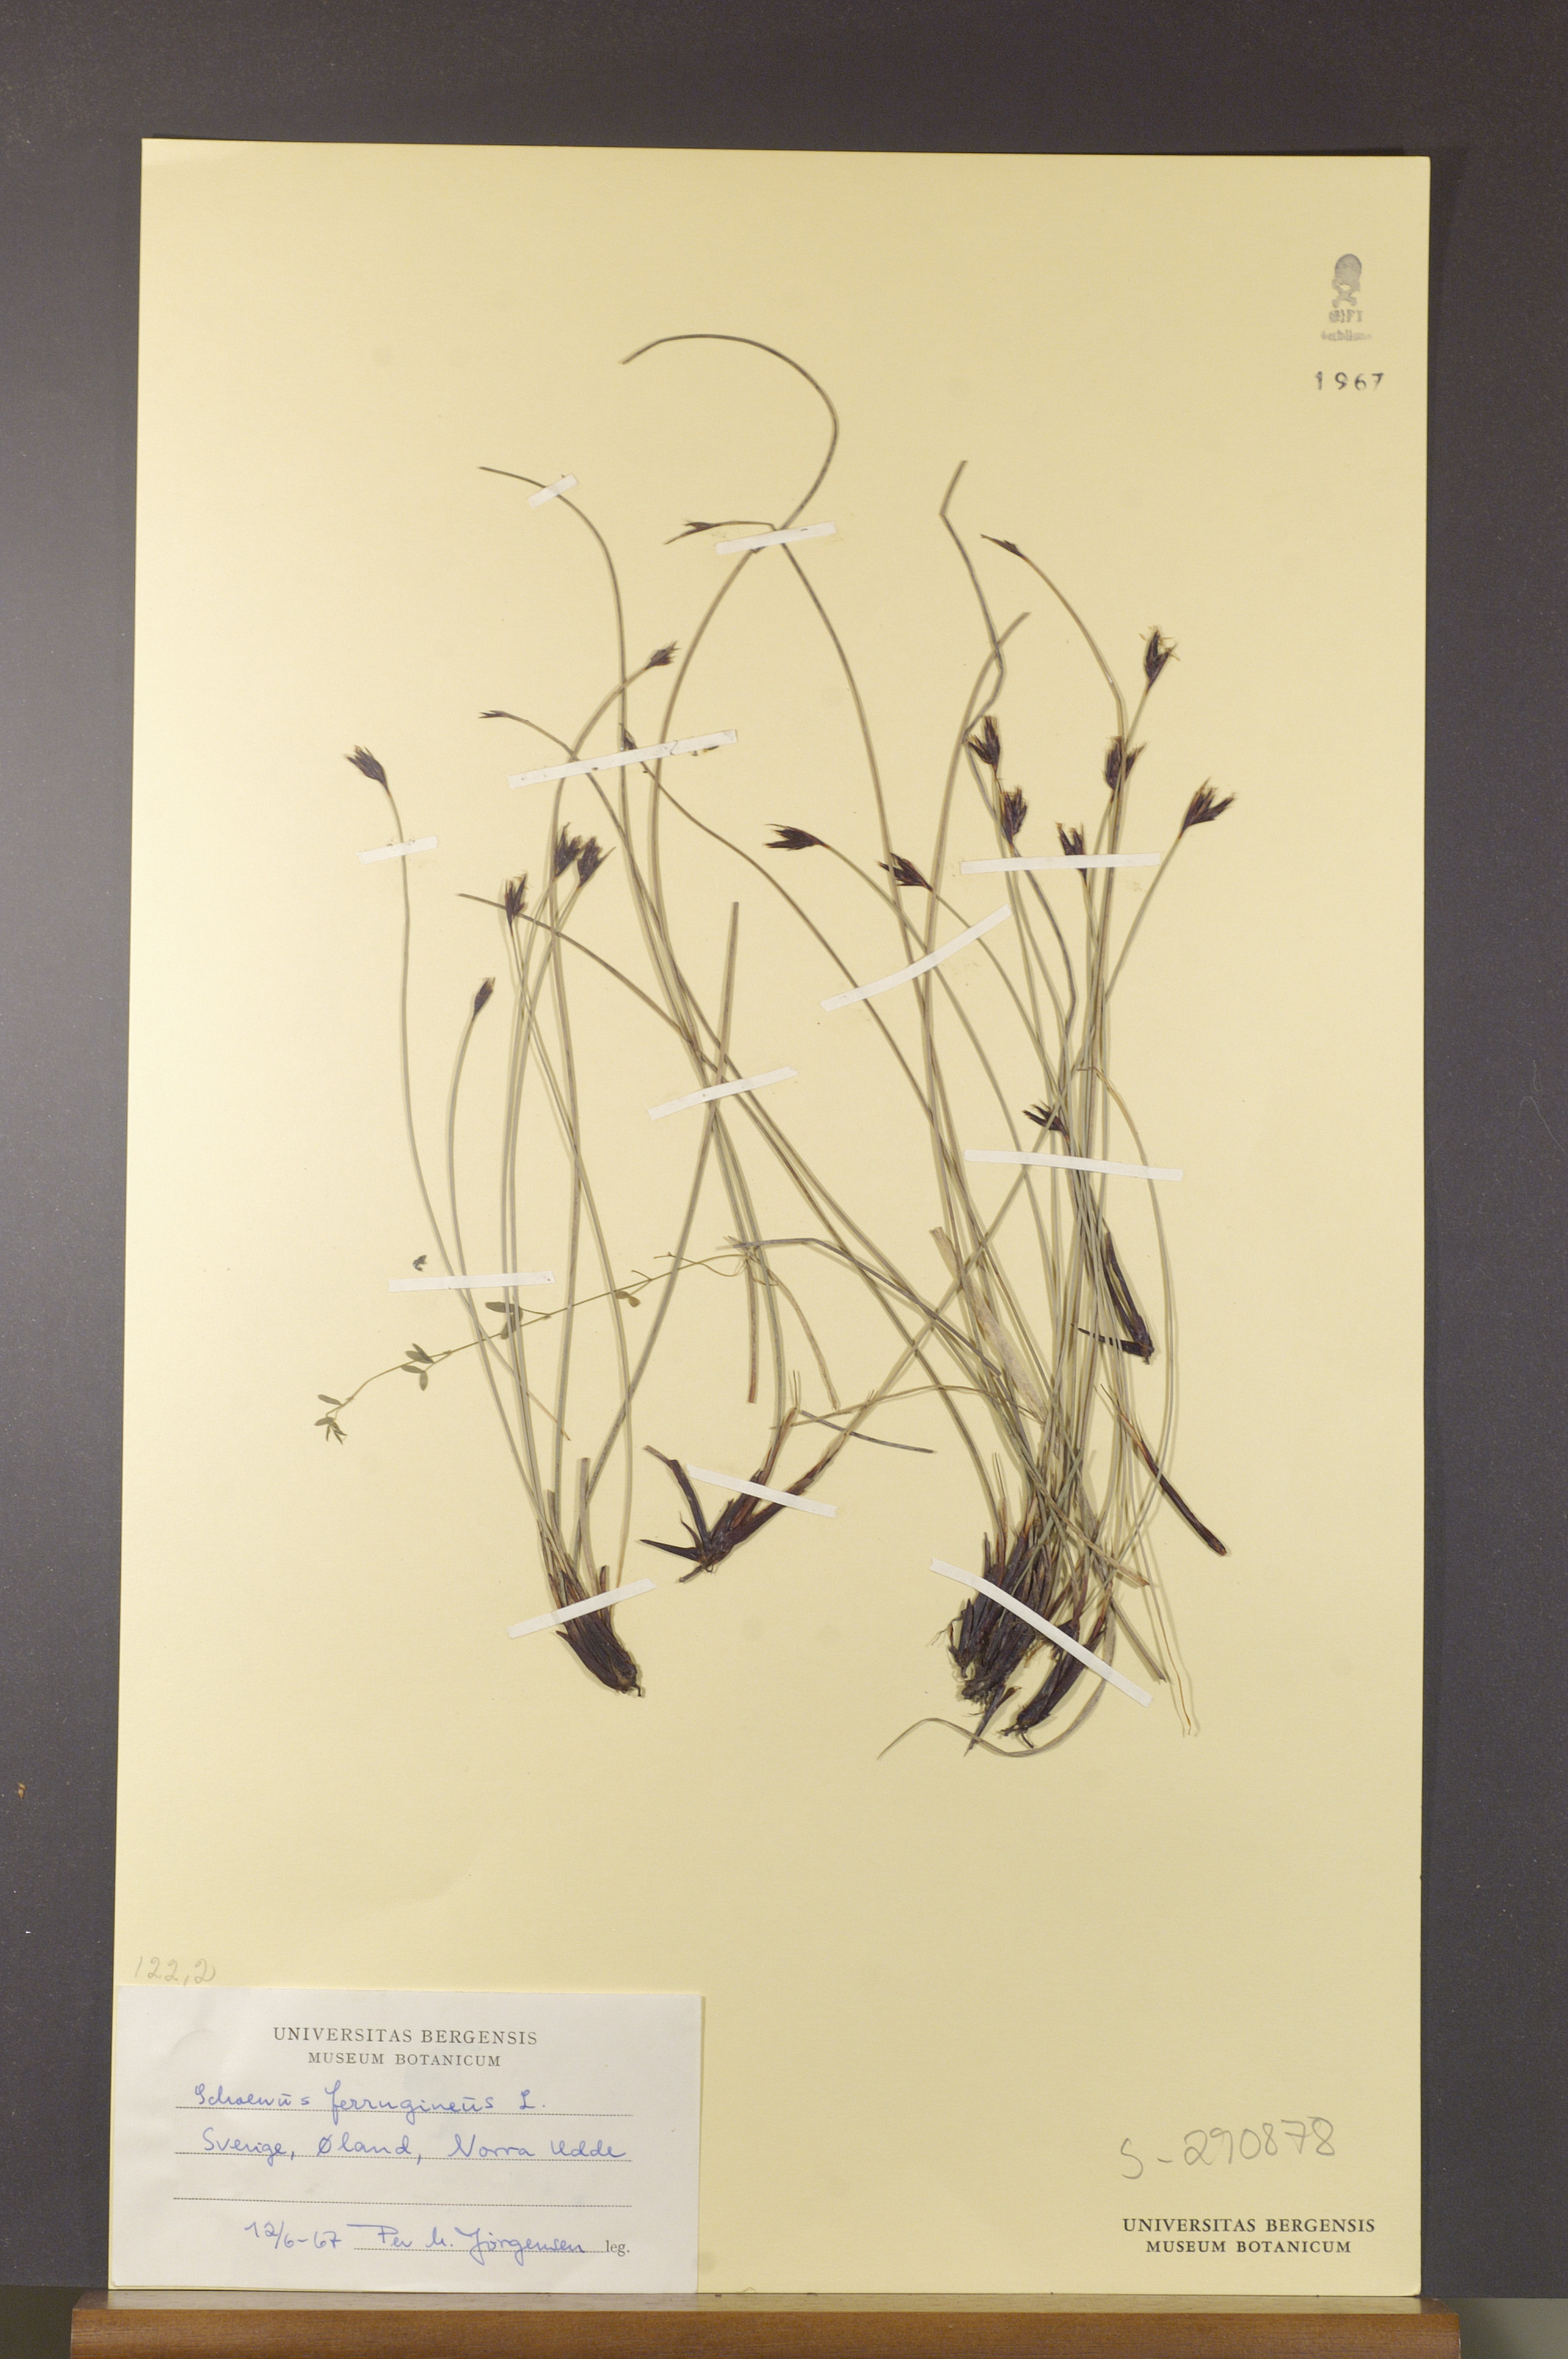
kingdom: Plantae
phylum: Tracheophyta
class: Liliopsida
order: Poales
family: Cyperaceae
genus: Schoenus
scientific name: Schoenus ferrugineus
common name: Brown bog-rush
